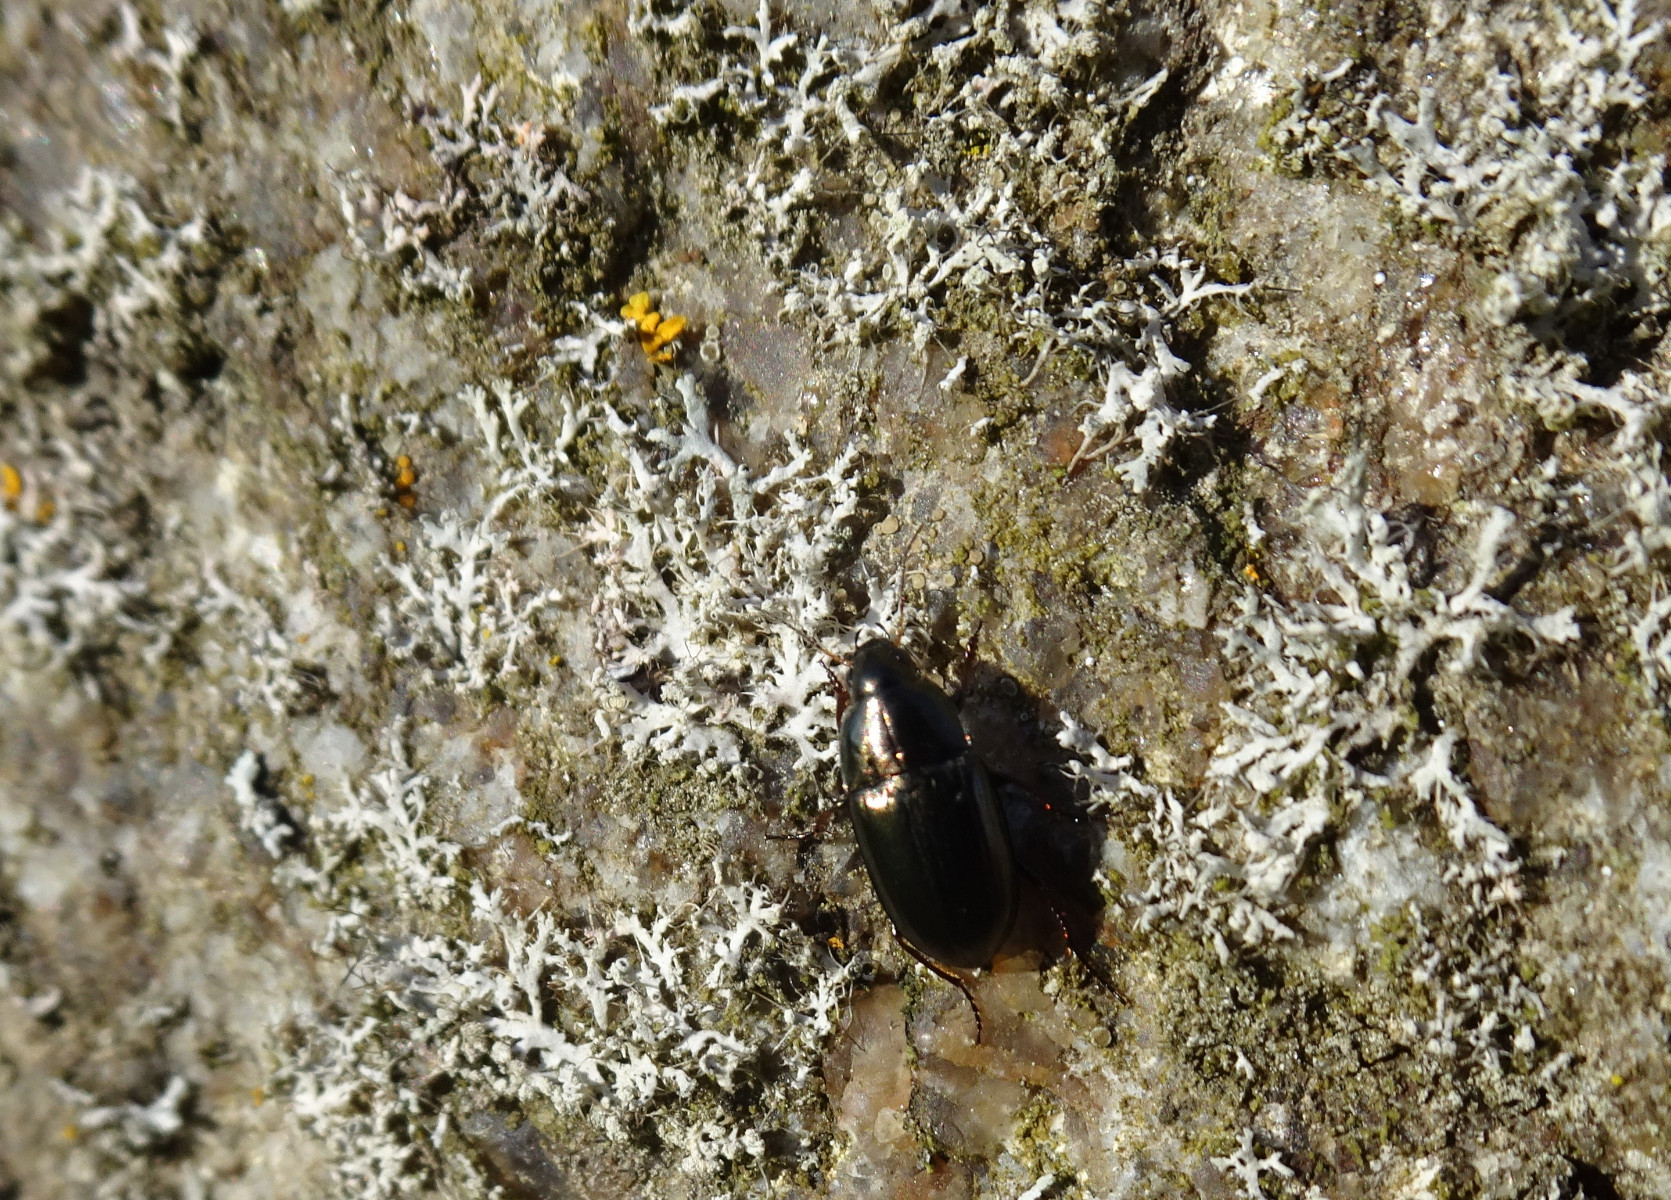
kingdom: Fungi
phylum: Ascomycota
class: Lecanoromycetes
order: Caliciales
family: Physciaceae
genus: Physcia
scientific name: Physcia tenella
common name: spæd rosetlav
